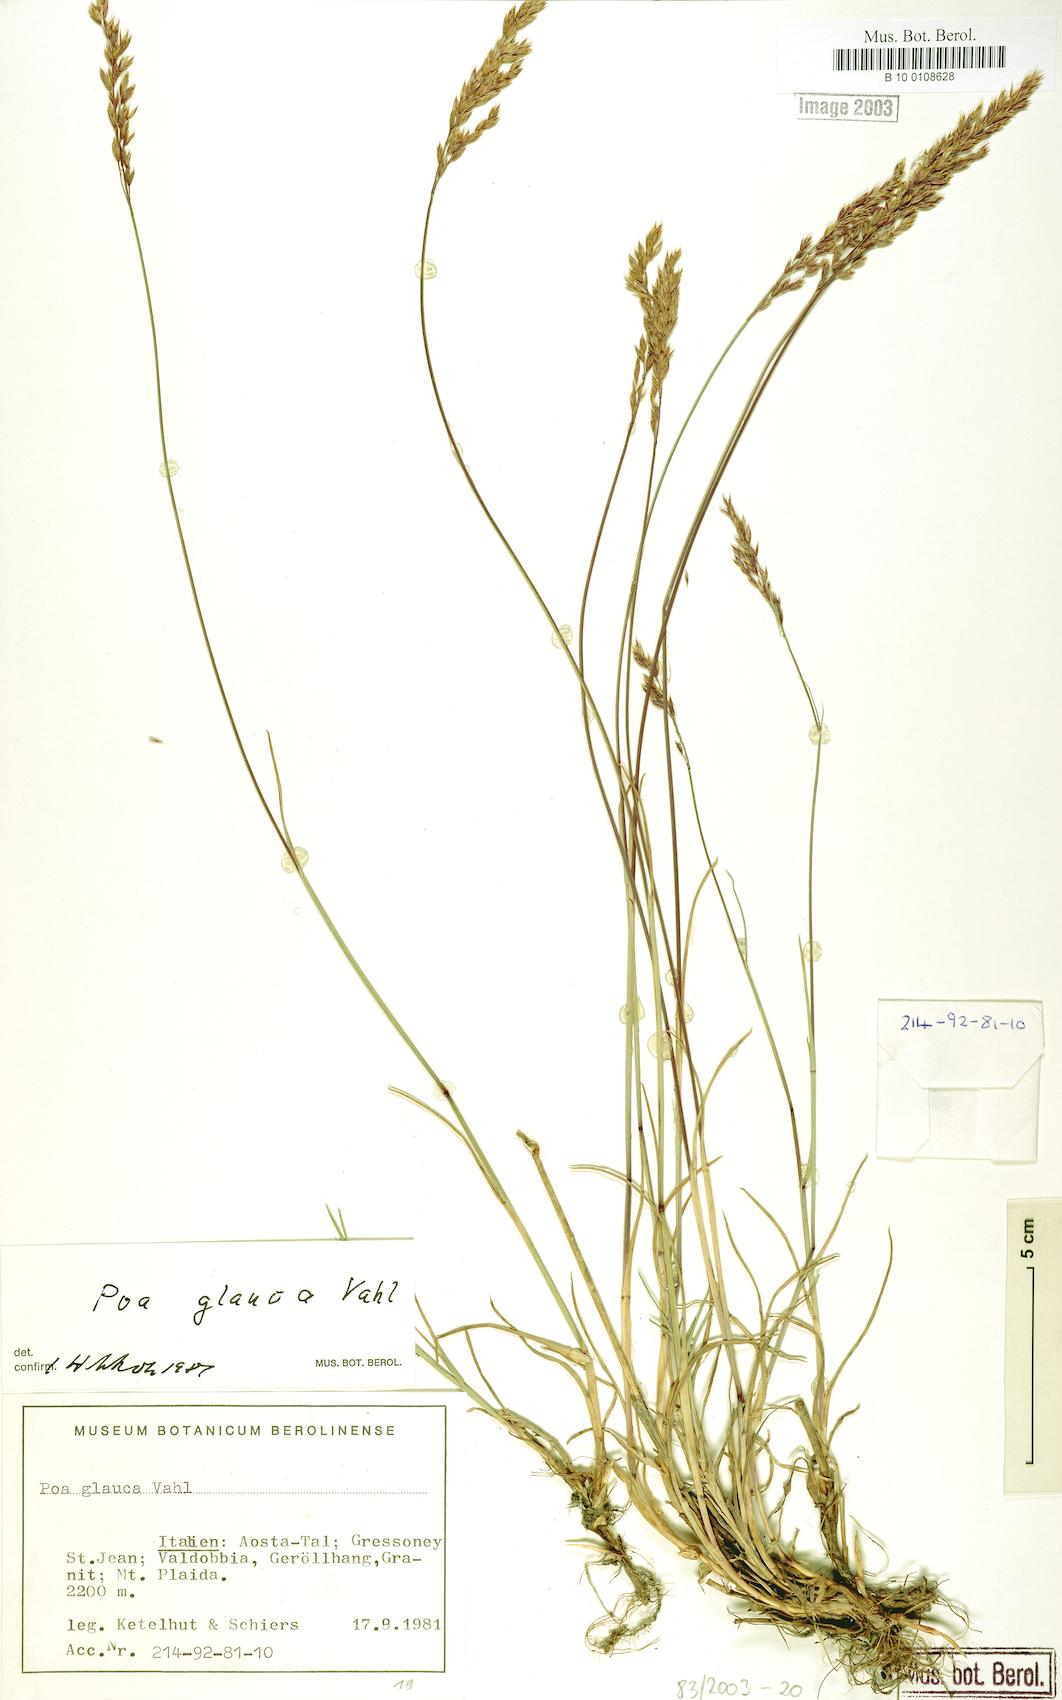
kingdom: Plantae
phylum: Tracheophyta
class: Liliopsida
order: Poales
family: Poaceae
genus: Poa
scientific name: Poa glauca
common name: Glaucous bluegrass
